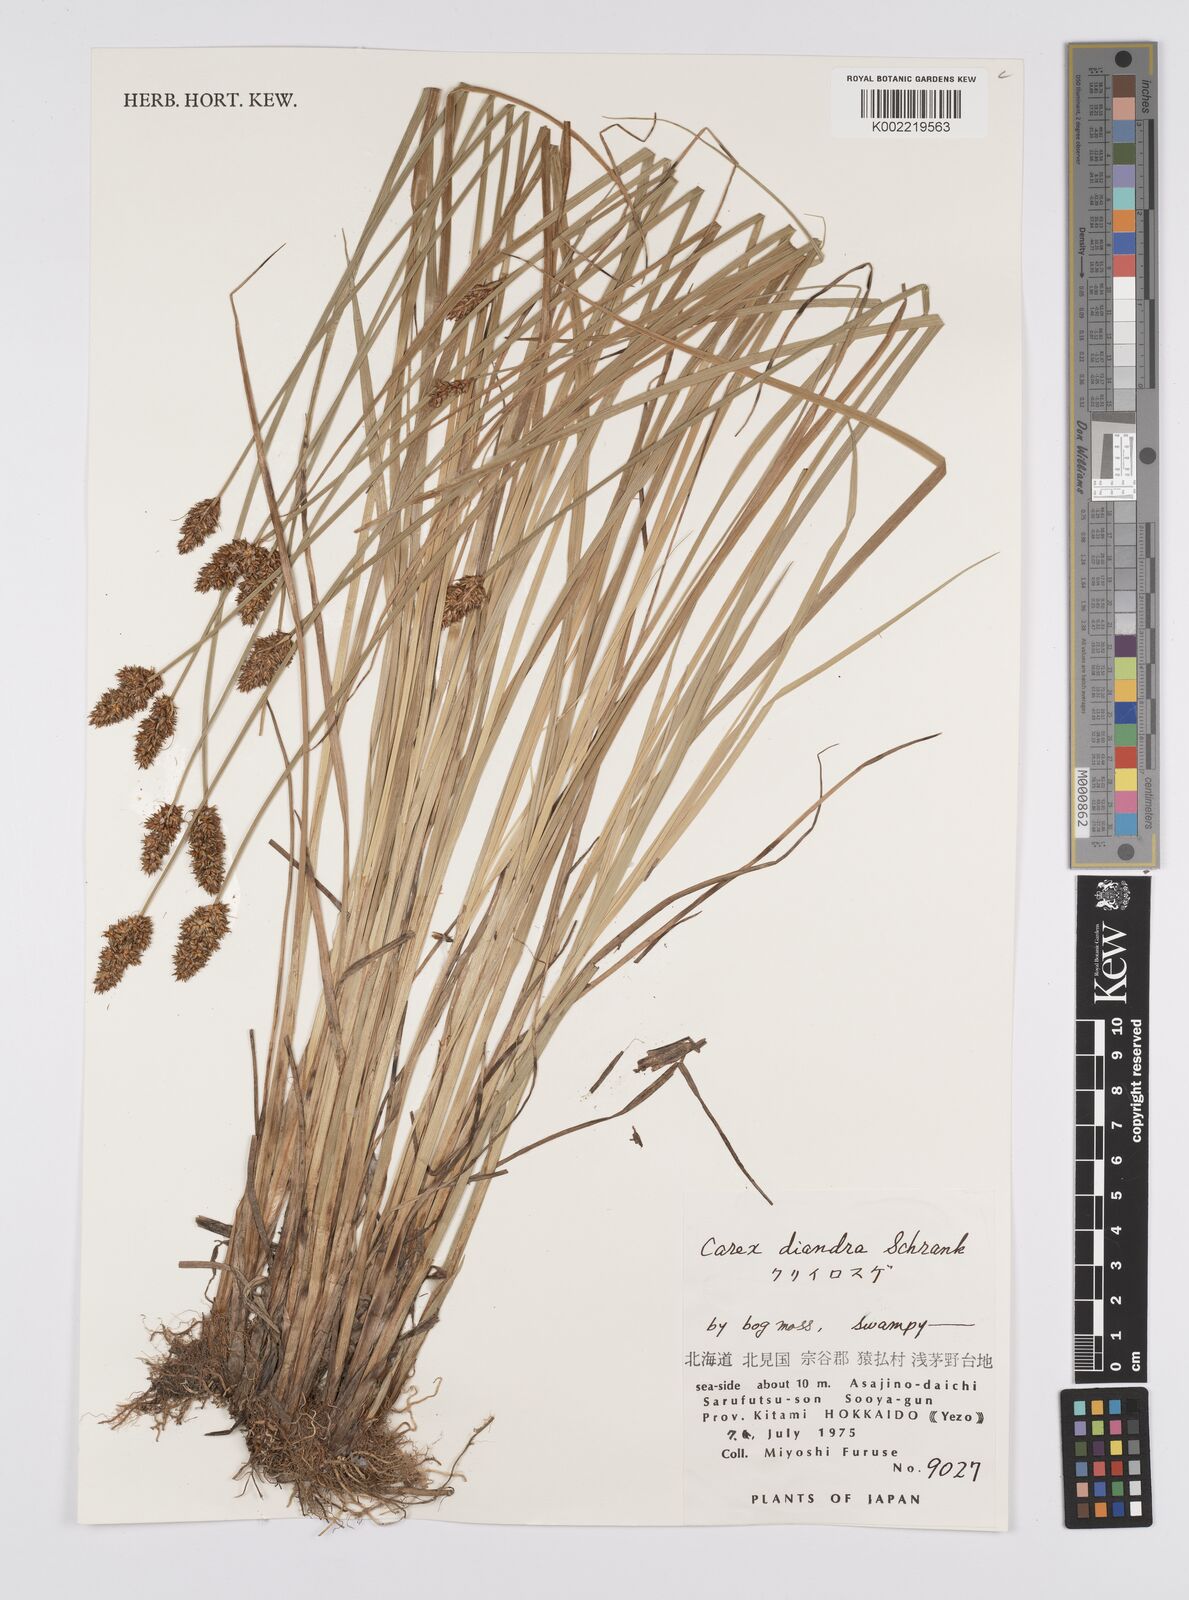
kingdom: Plantae
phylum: Tracheophyta
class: Liliopsida
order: Poales
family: Cyperaceae
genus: Carex
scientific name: Carex diandra
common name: Lesser tussock-sedge
